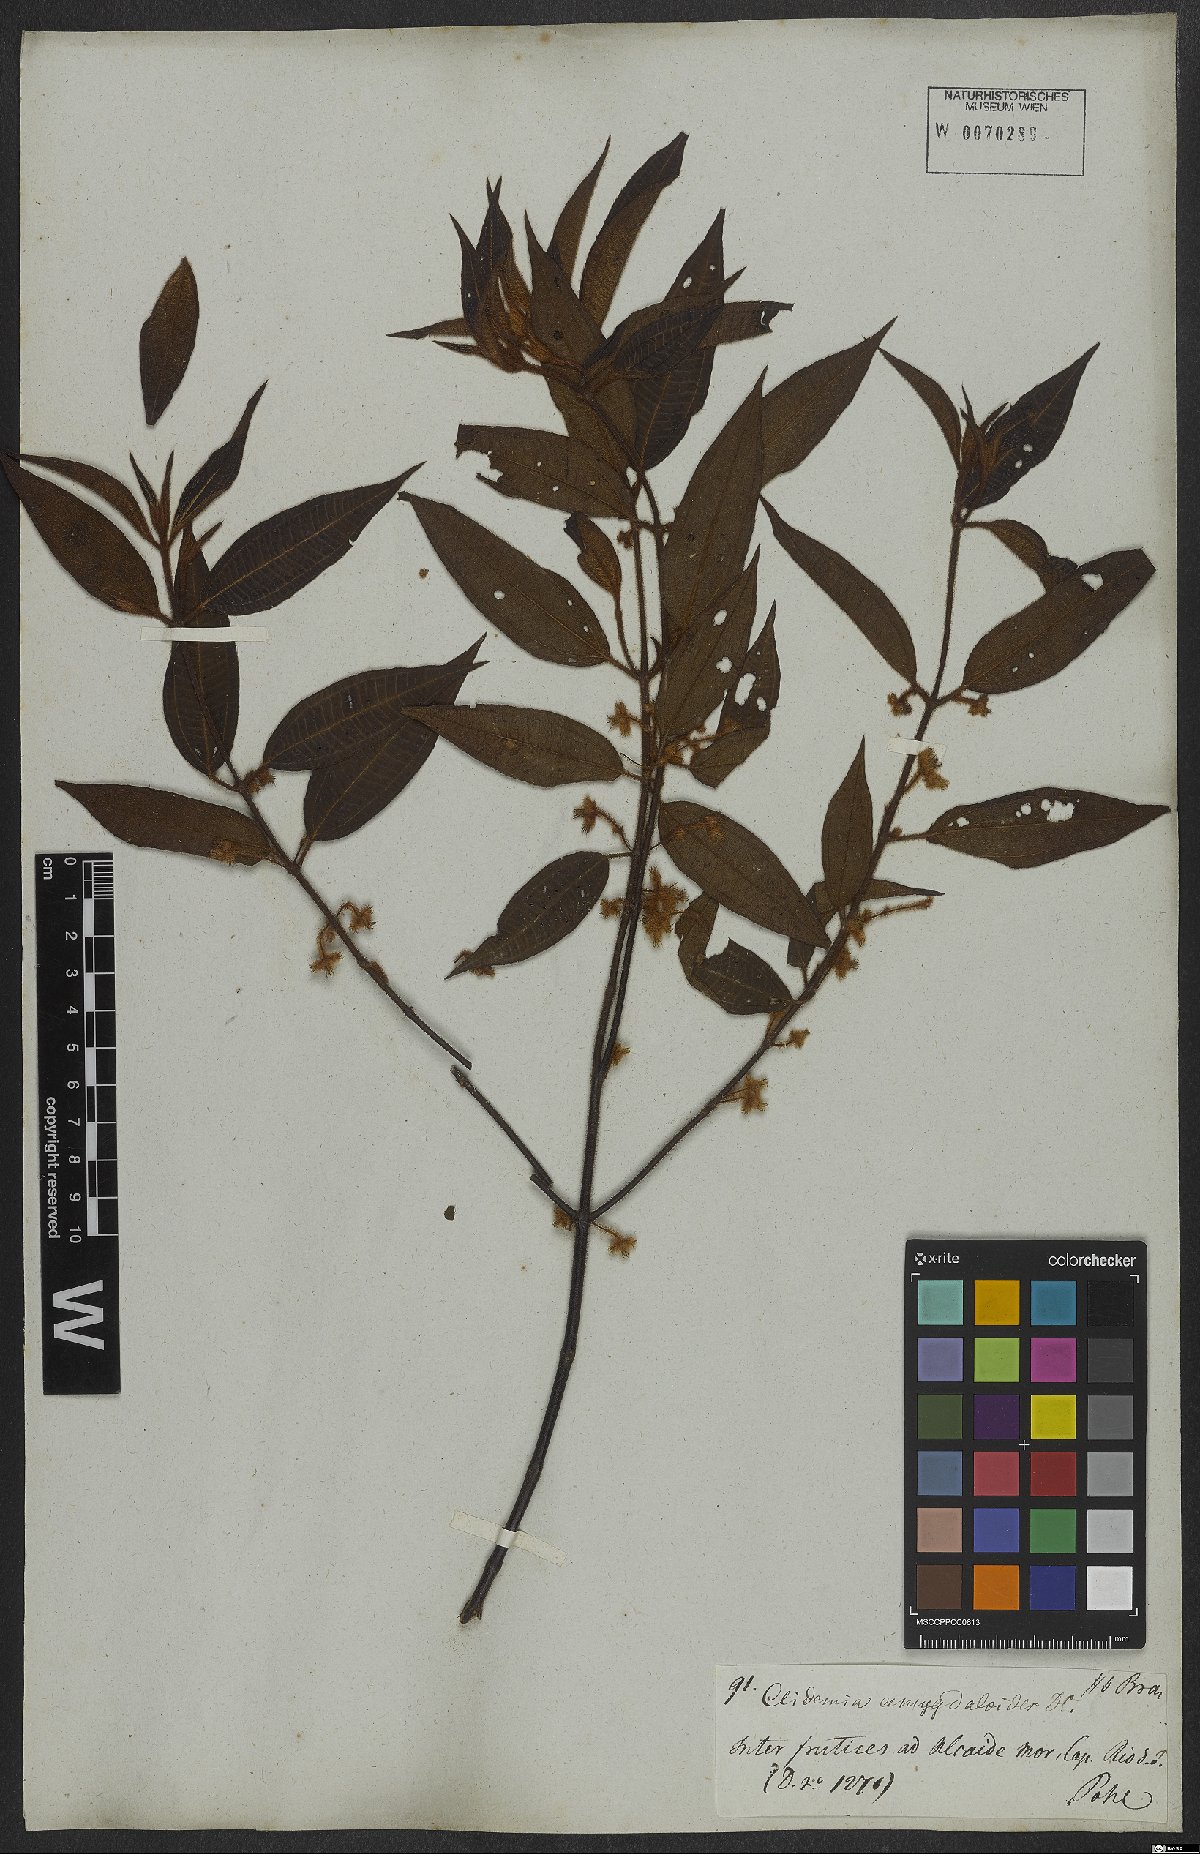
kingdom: Plantae
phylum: Tracheophyta
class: Magnoliopsida
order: Myrtales
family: Melastomataceae
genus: Miconia
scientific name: Miconia amygdaloides
